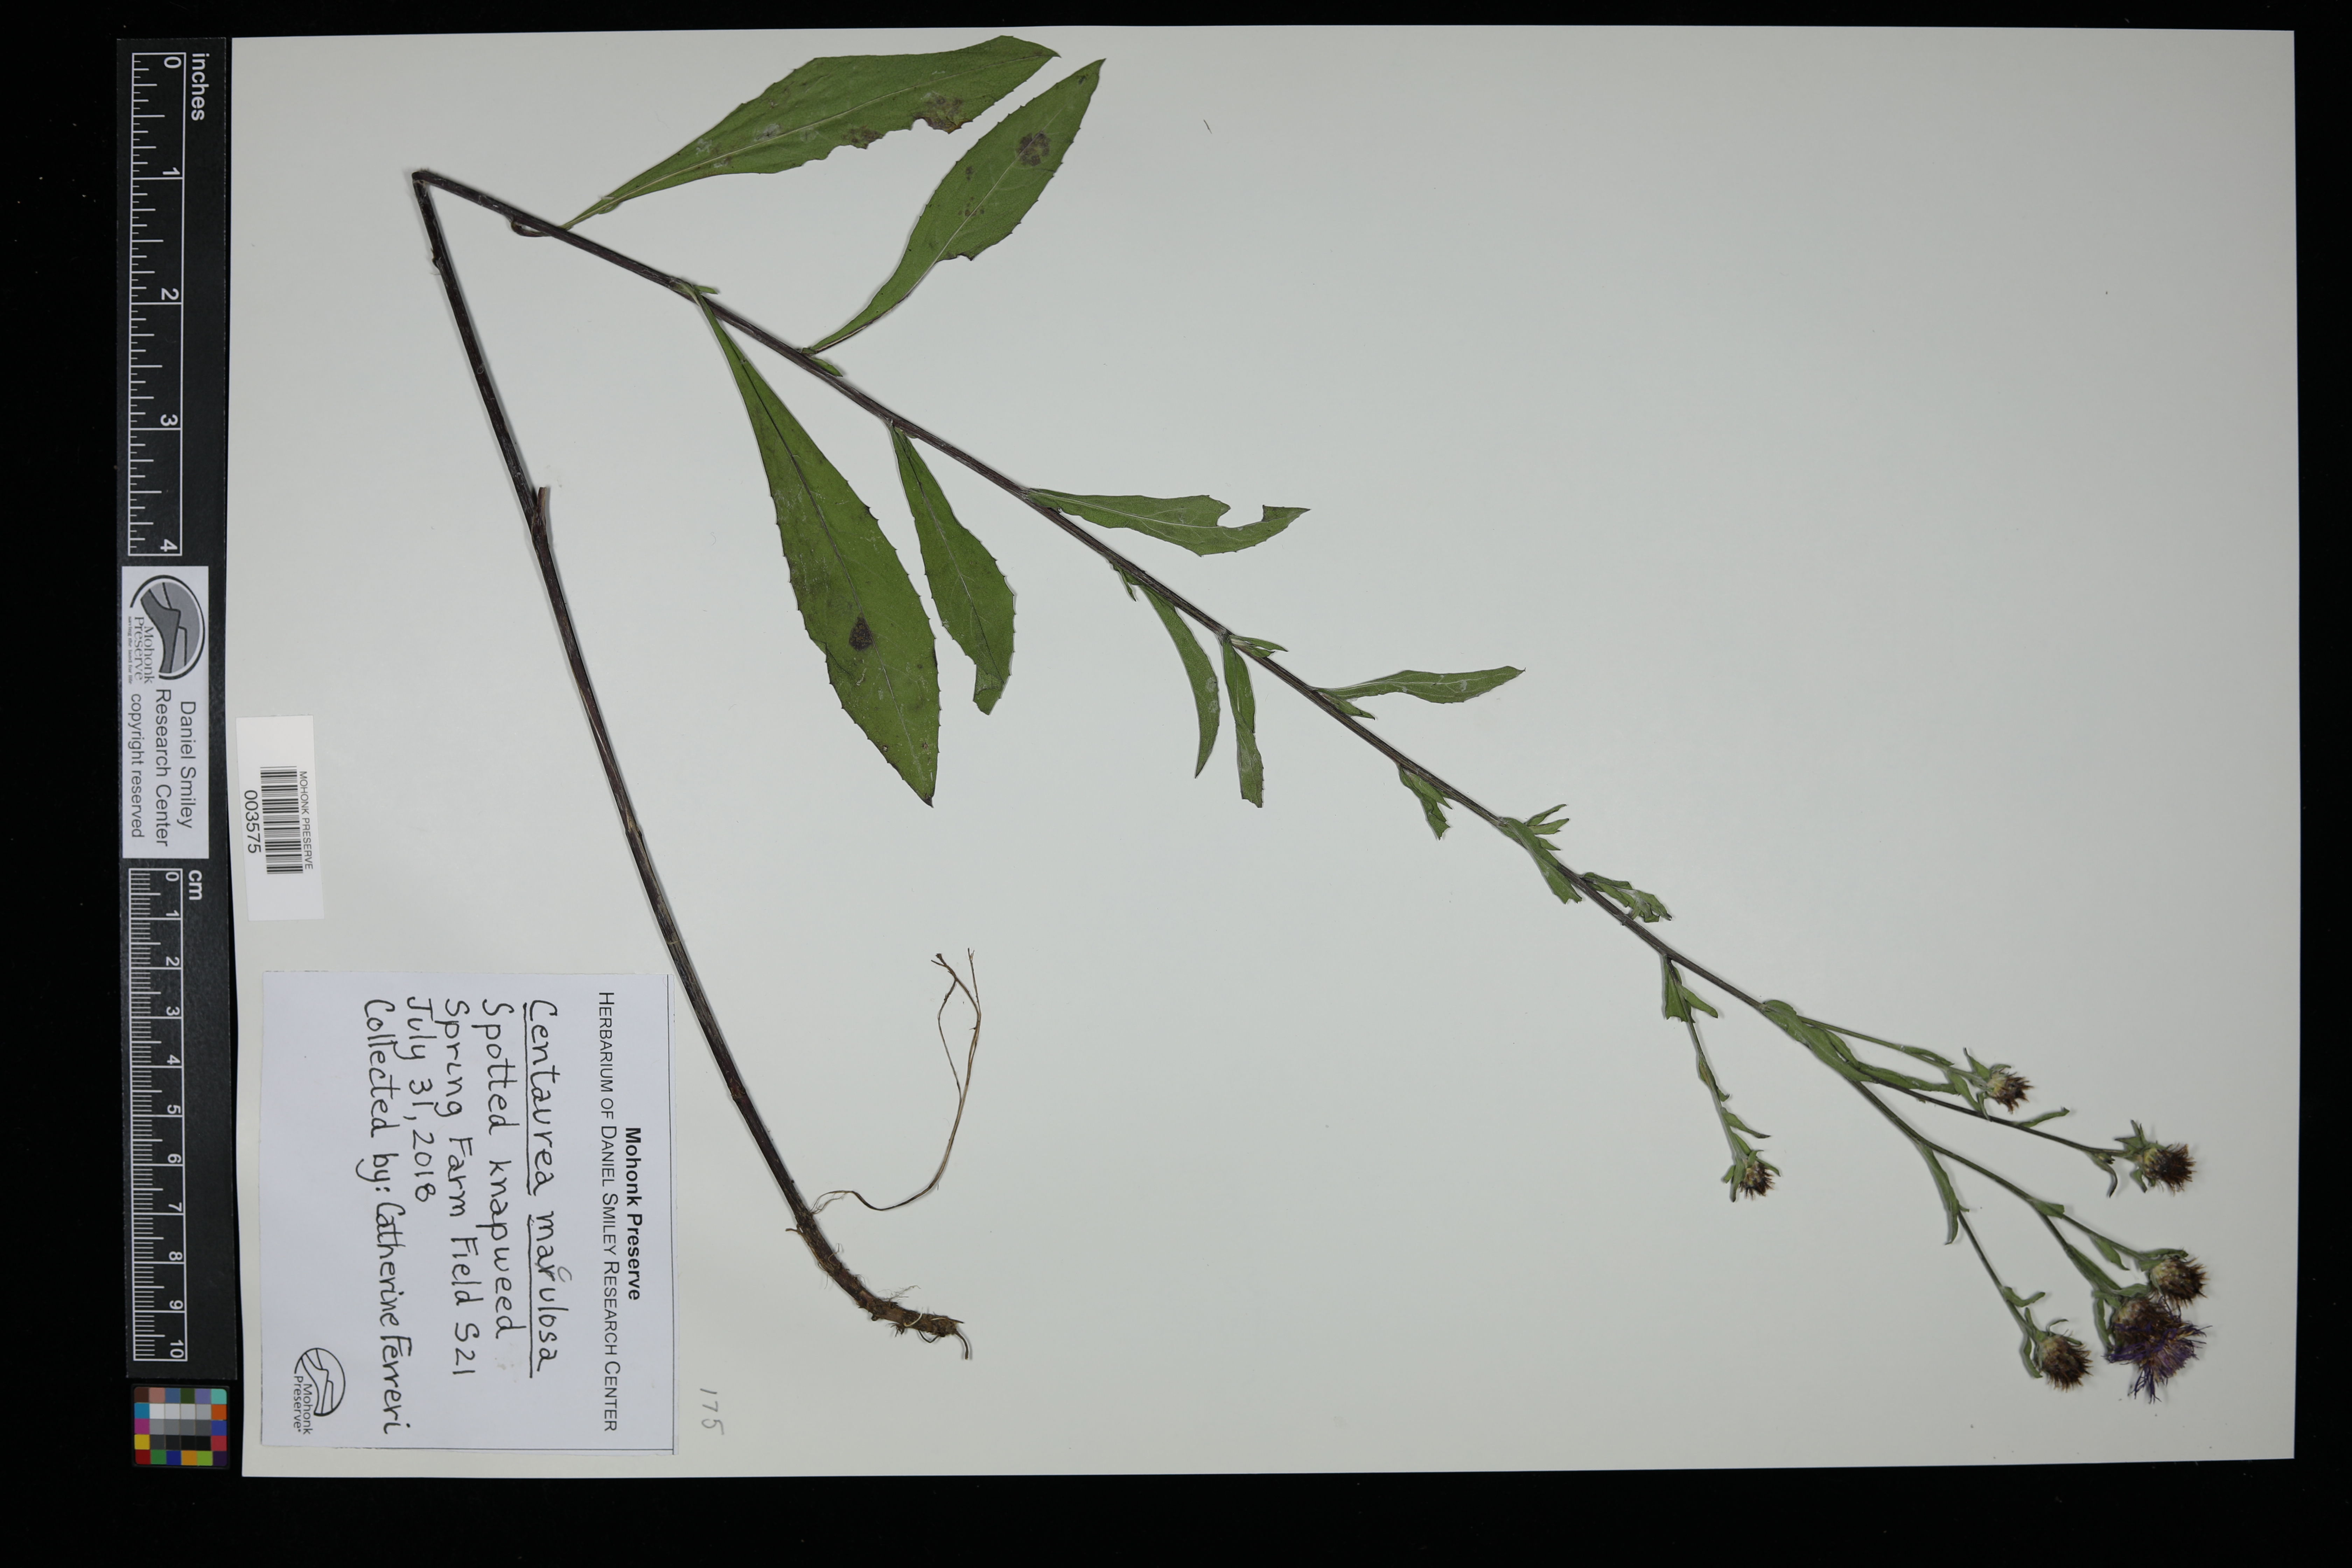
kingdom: Plantae
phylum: Tracheophyta
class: Magnoliopsida
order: Asterales
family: Asteraceae
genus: Centaurea
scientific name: Centaurea stoebe
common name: Spotted knapweed
